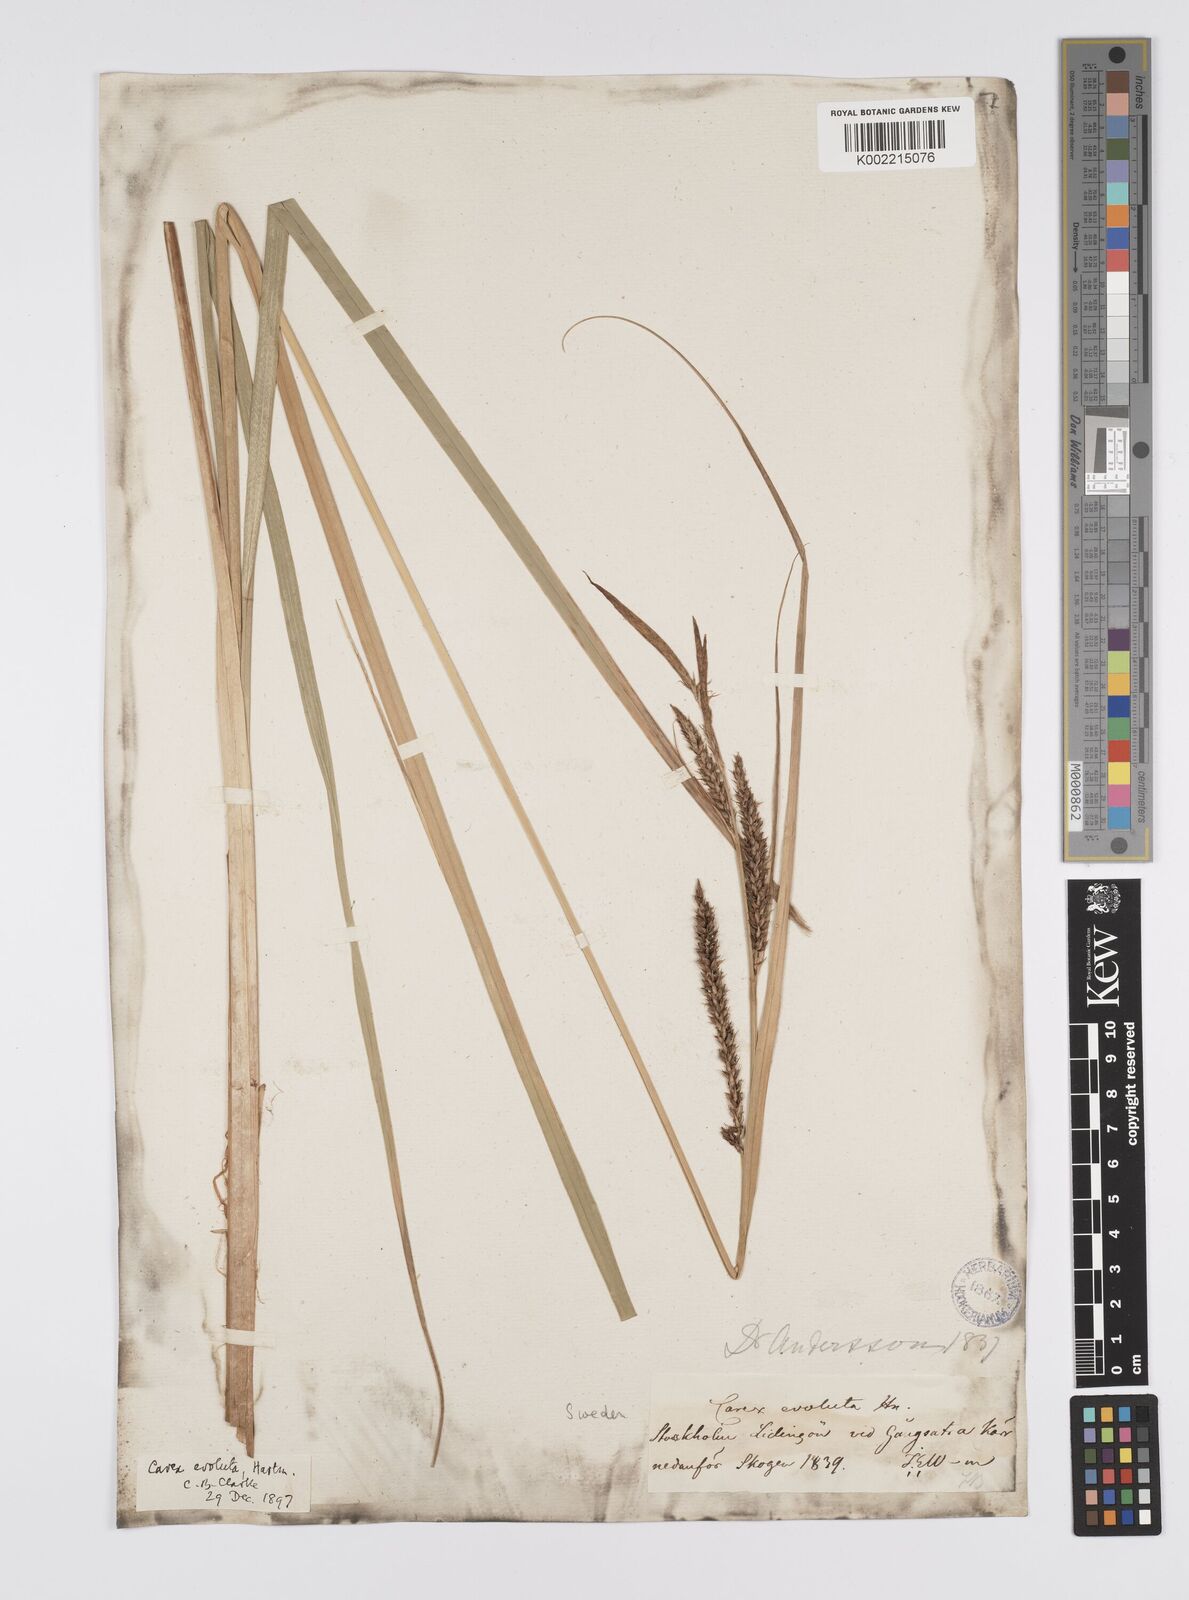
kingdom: Plantae
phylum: Tracheophyta
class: Liliopsida
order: Poales
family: Cyperaceae
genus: Carex
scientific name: Carex evoluta
